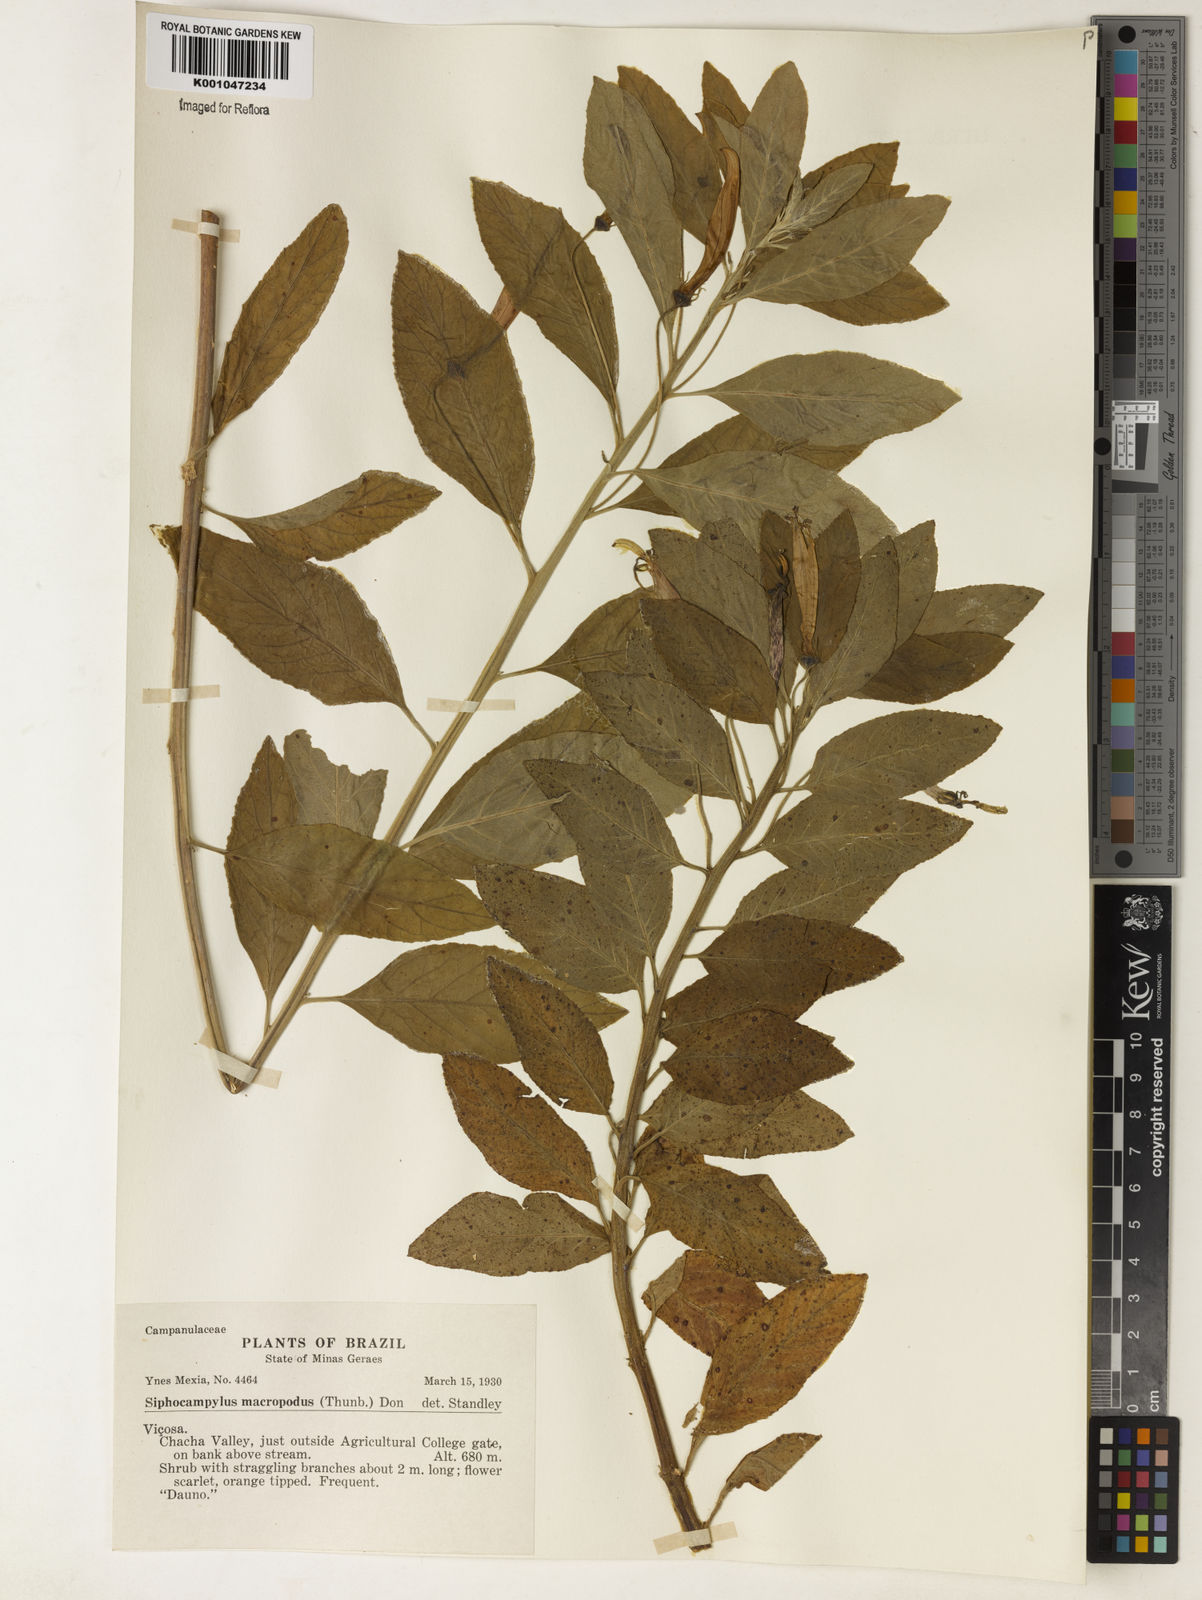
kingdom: Plantae
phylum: Tracheophyta
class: Magnoliopsida
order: Asterales
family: Campanulaceae
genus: Siphocampylus
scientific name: Siphocampylus macropodus
